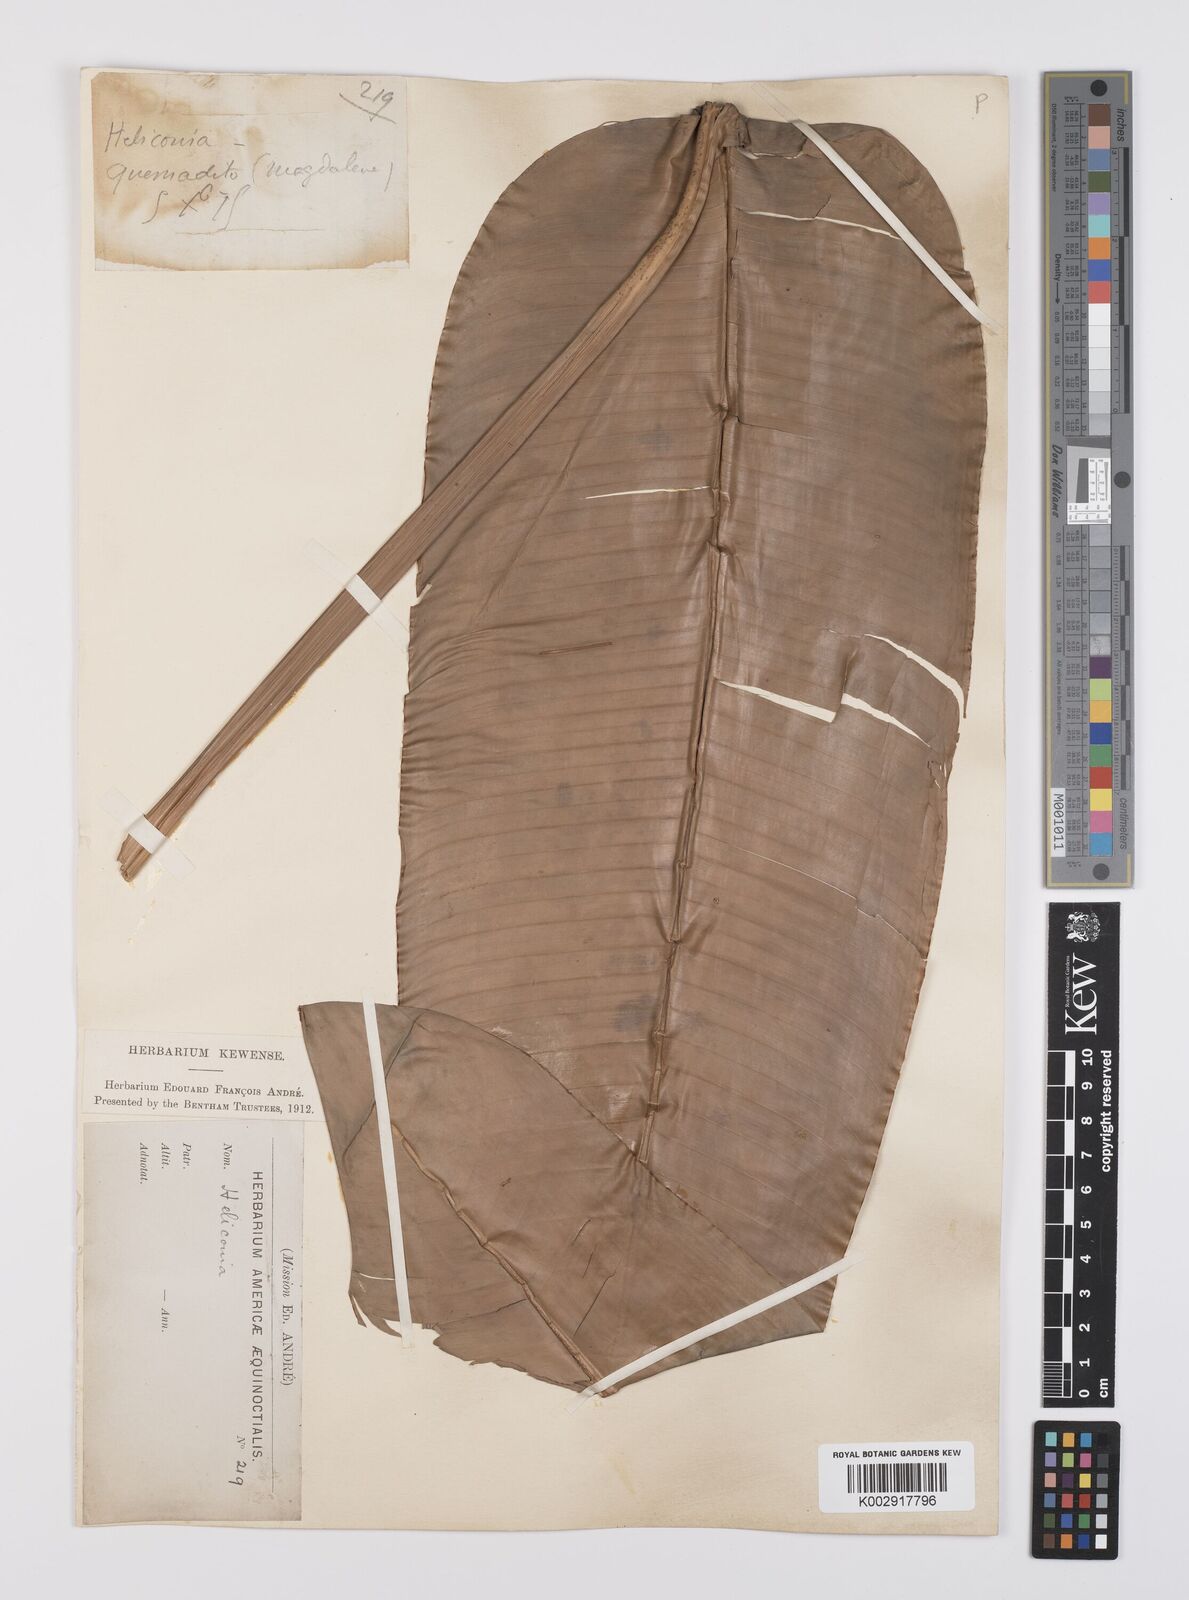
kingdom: Plantae
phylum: Tracheophyta
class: Liliopsida
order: Zingiberales
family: Heliconiaceae
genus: Heliconia
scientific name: Heliconia
